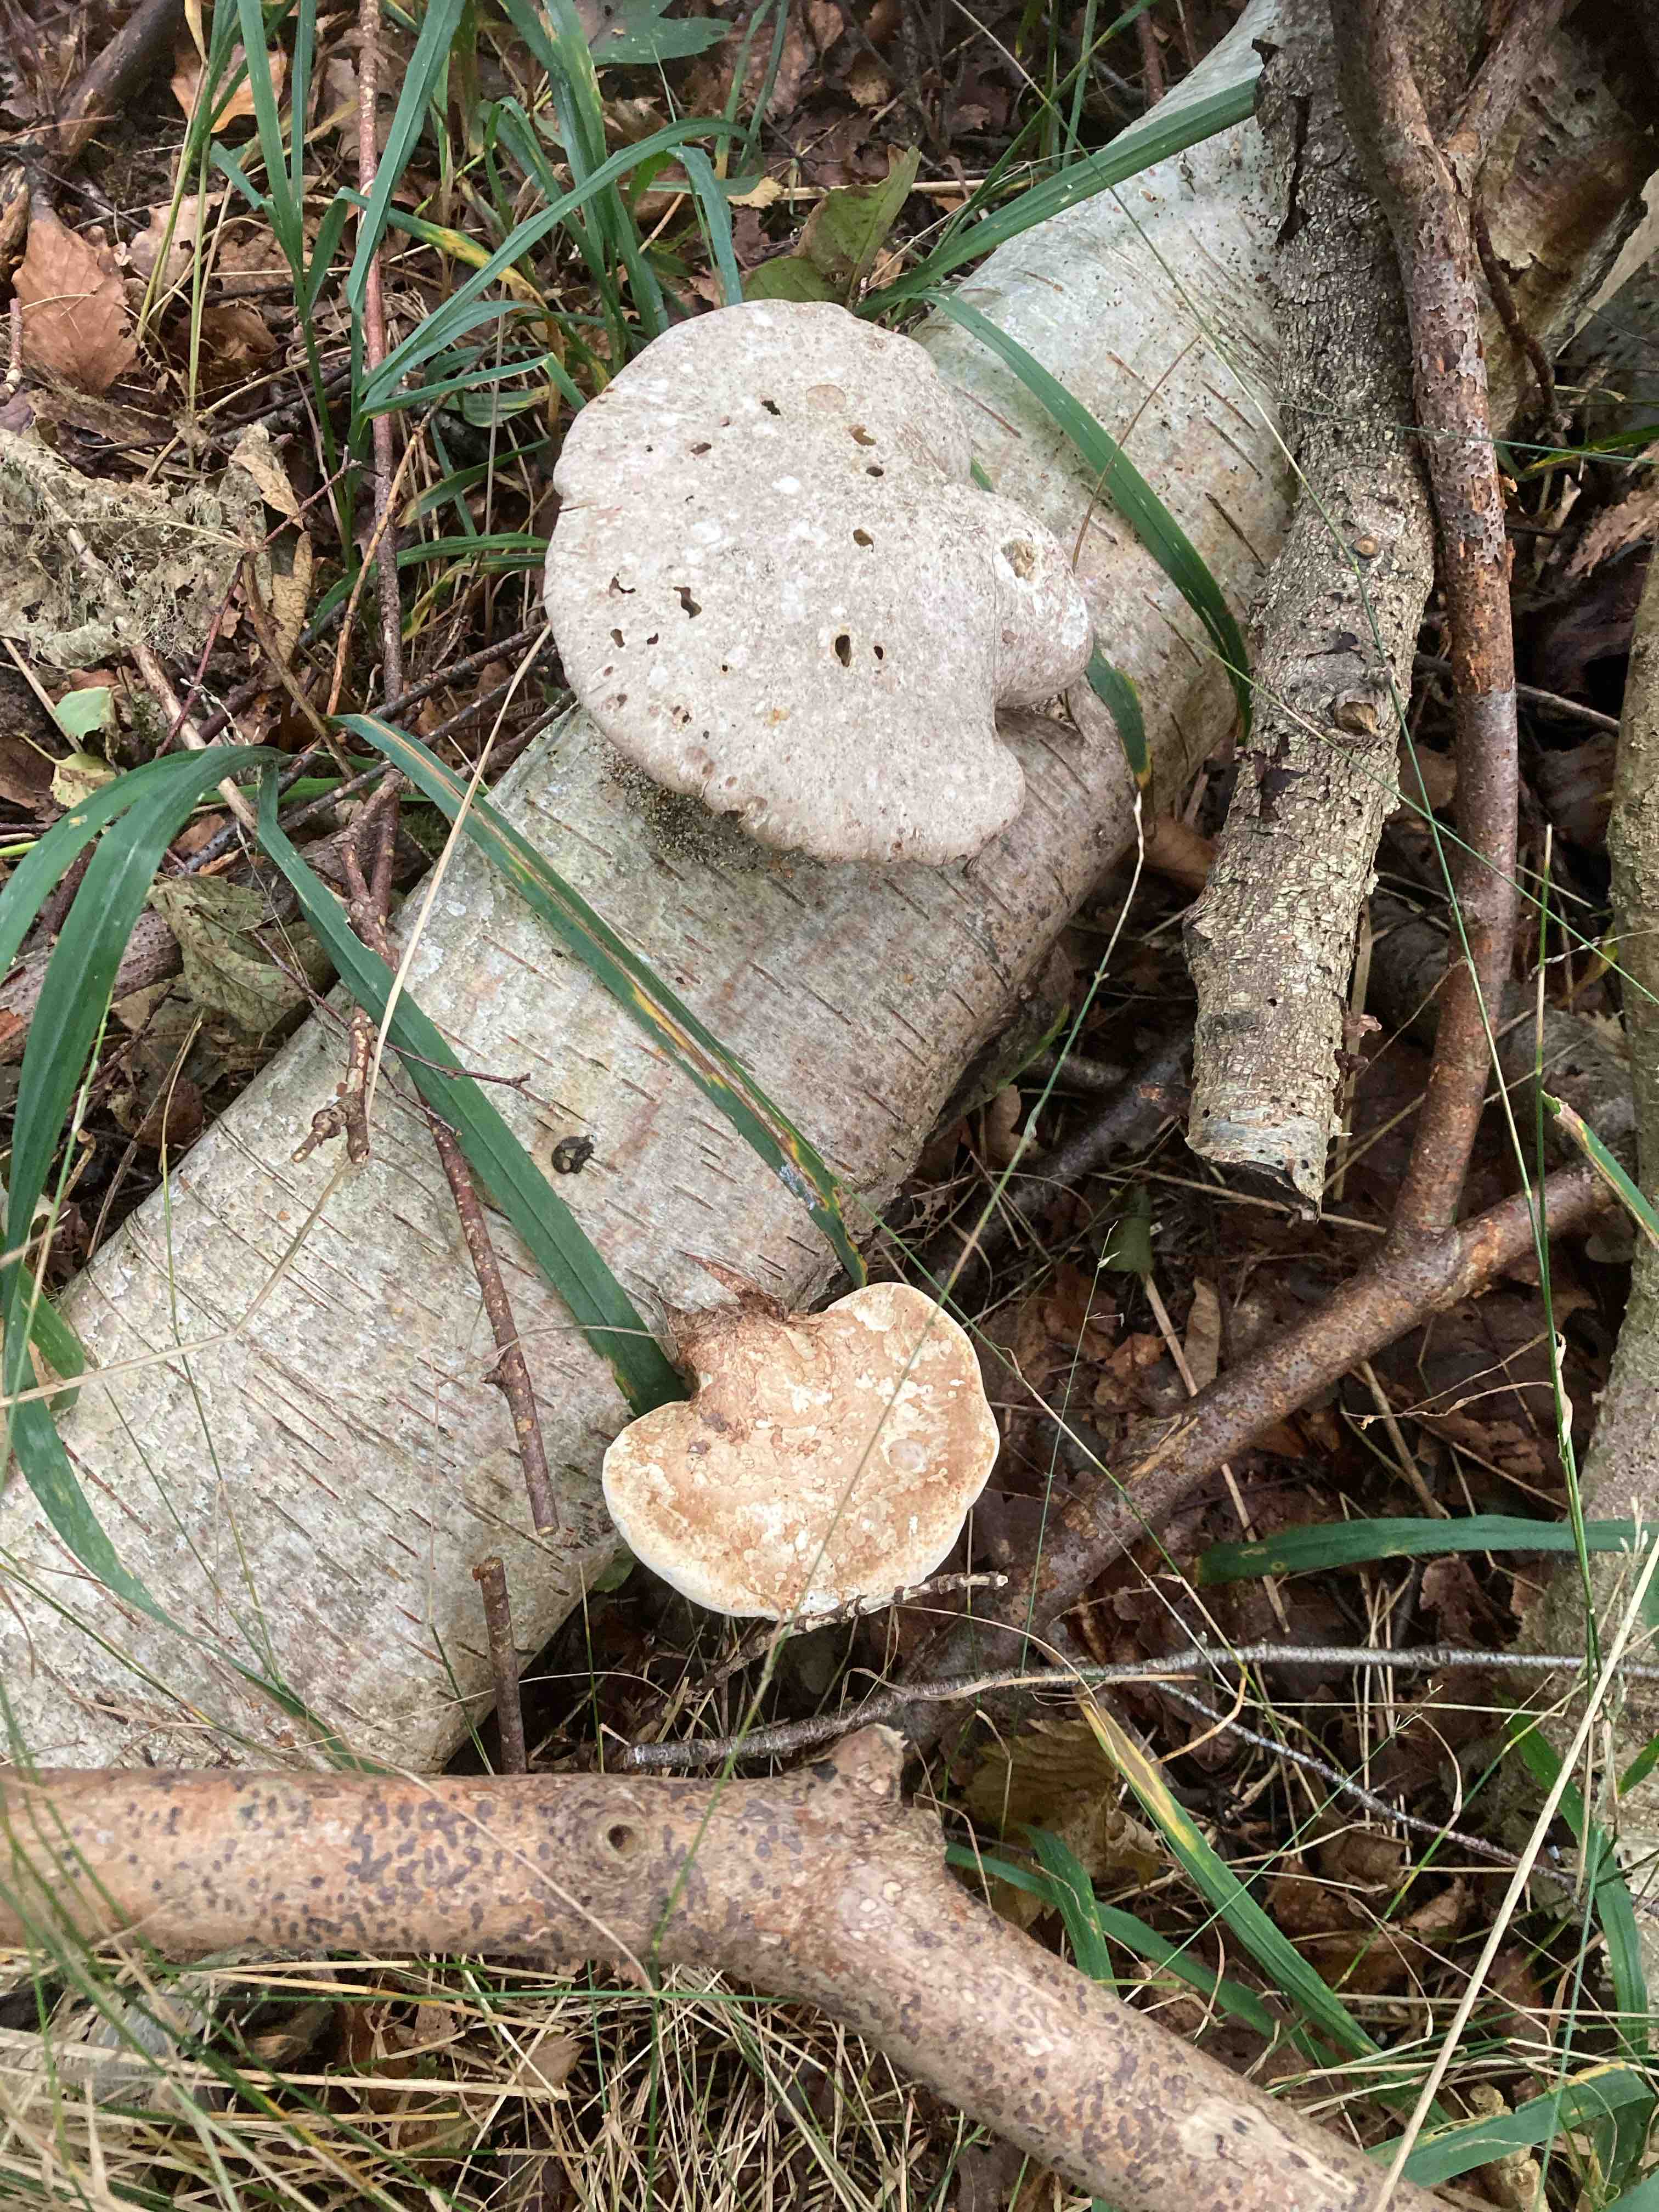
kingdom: Fungi
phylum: Basidiomycota
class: Agaricomycetes
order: Polyporales
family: Fomitopsidaceae
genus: Fomitopsis
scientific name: Fomitopsis betulina
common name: birkeporesvamp
